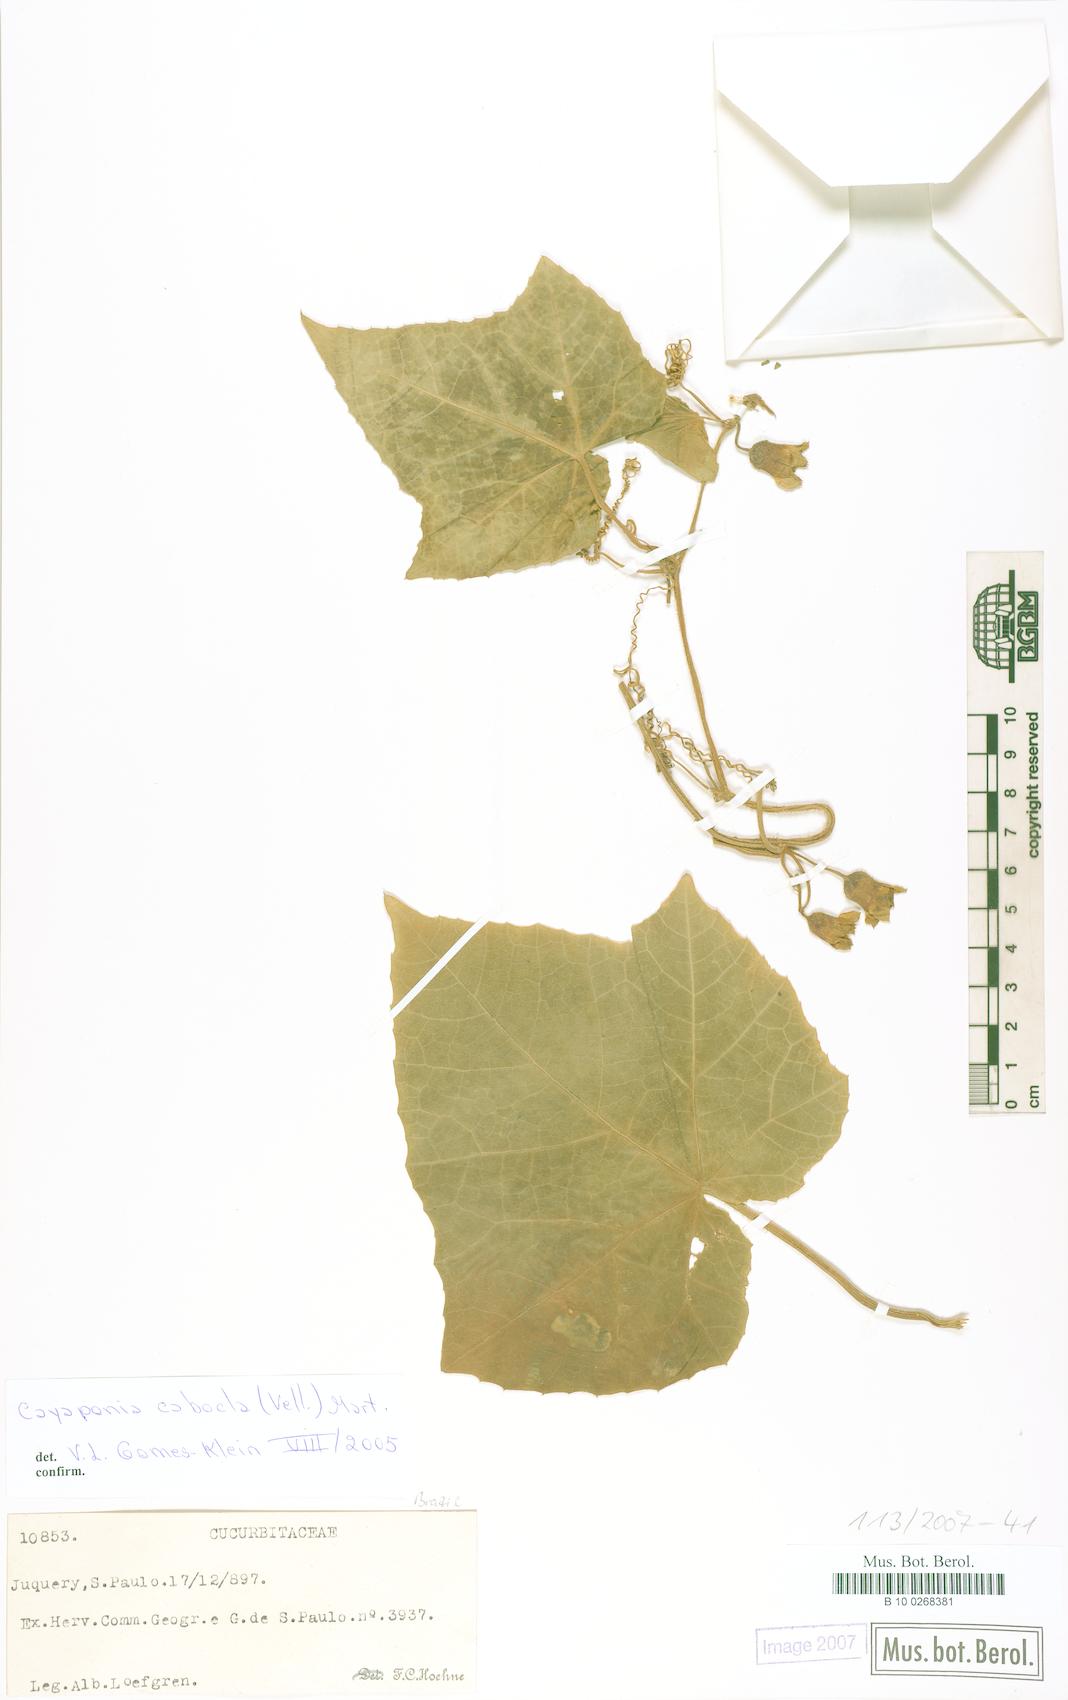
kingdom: Plantae
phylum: Tracheophyta
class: Magnoliopsida
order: Cucurbitales
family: Cucurbitaceae
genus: Cayaponia
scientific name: Cayaponia cabocla
